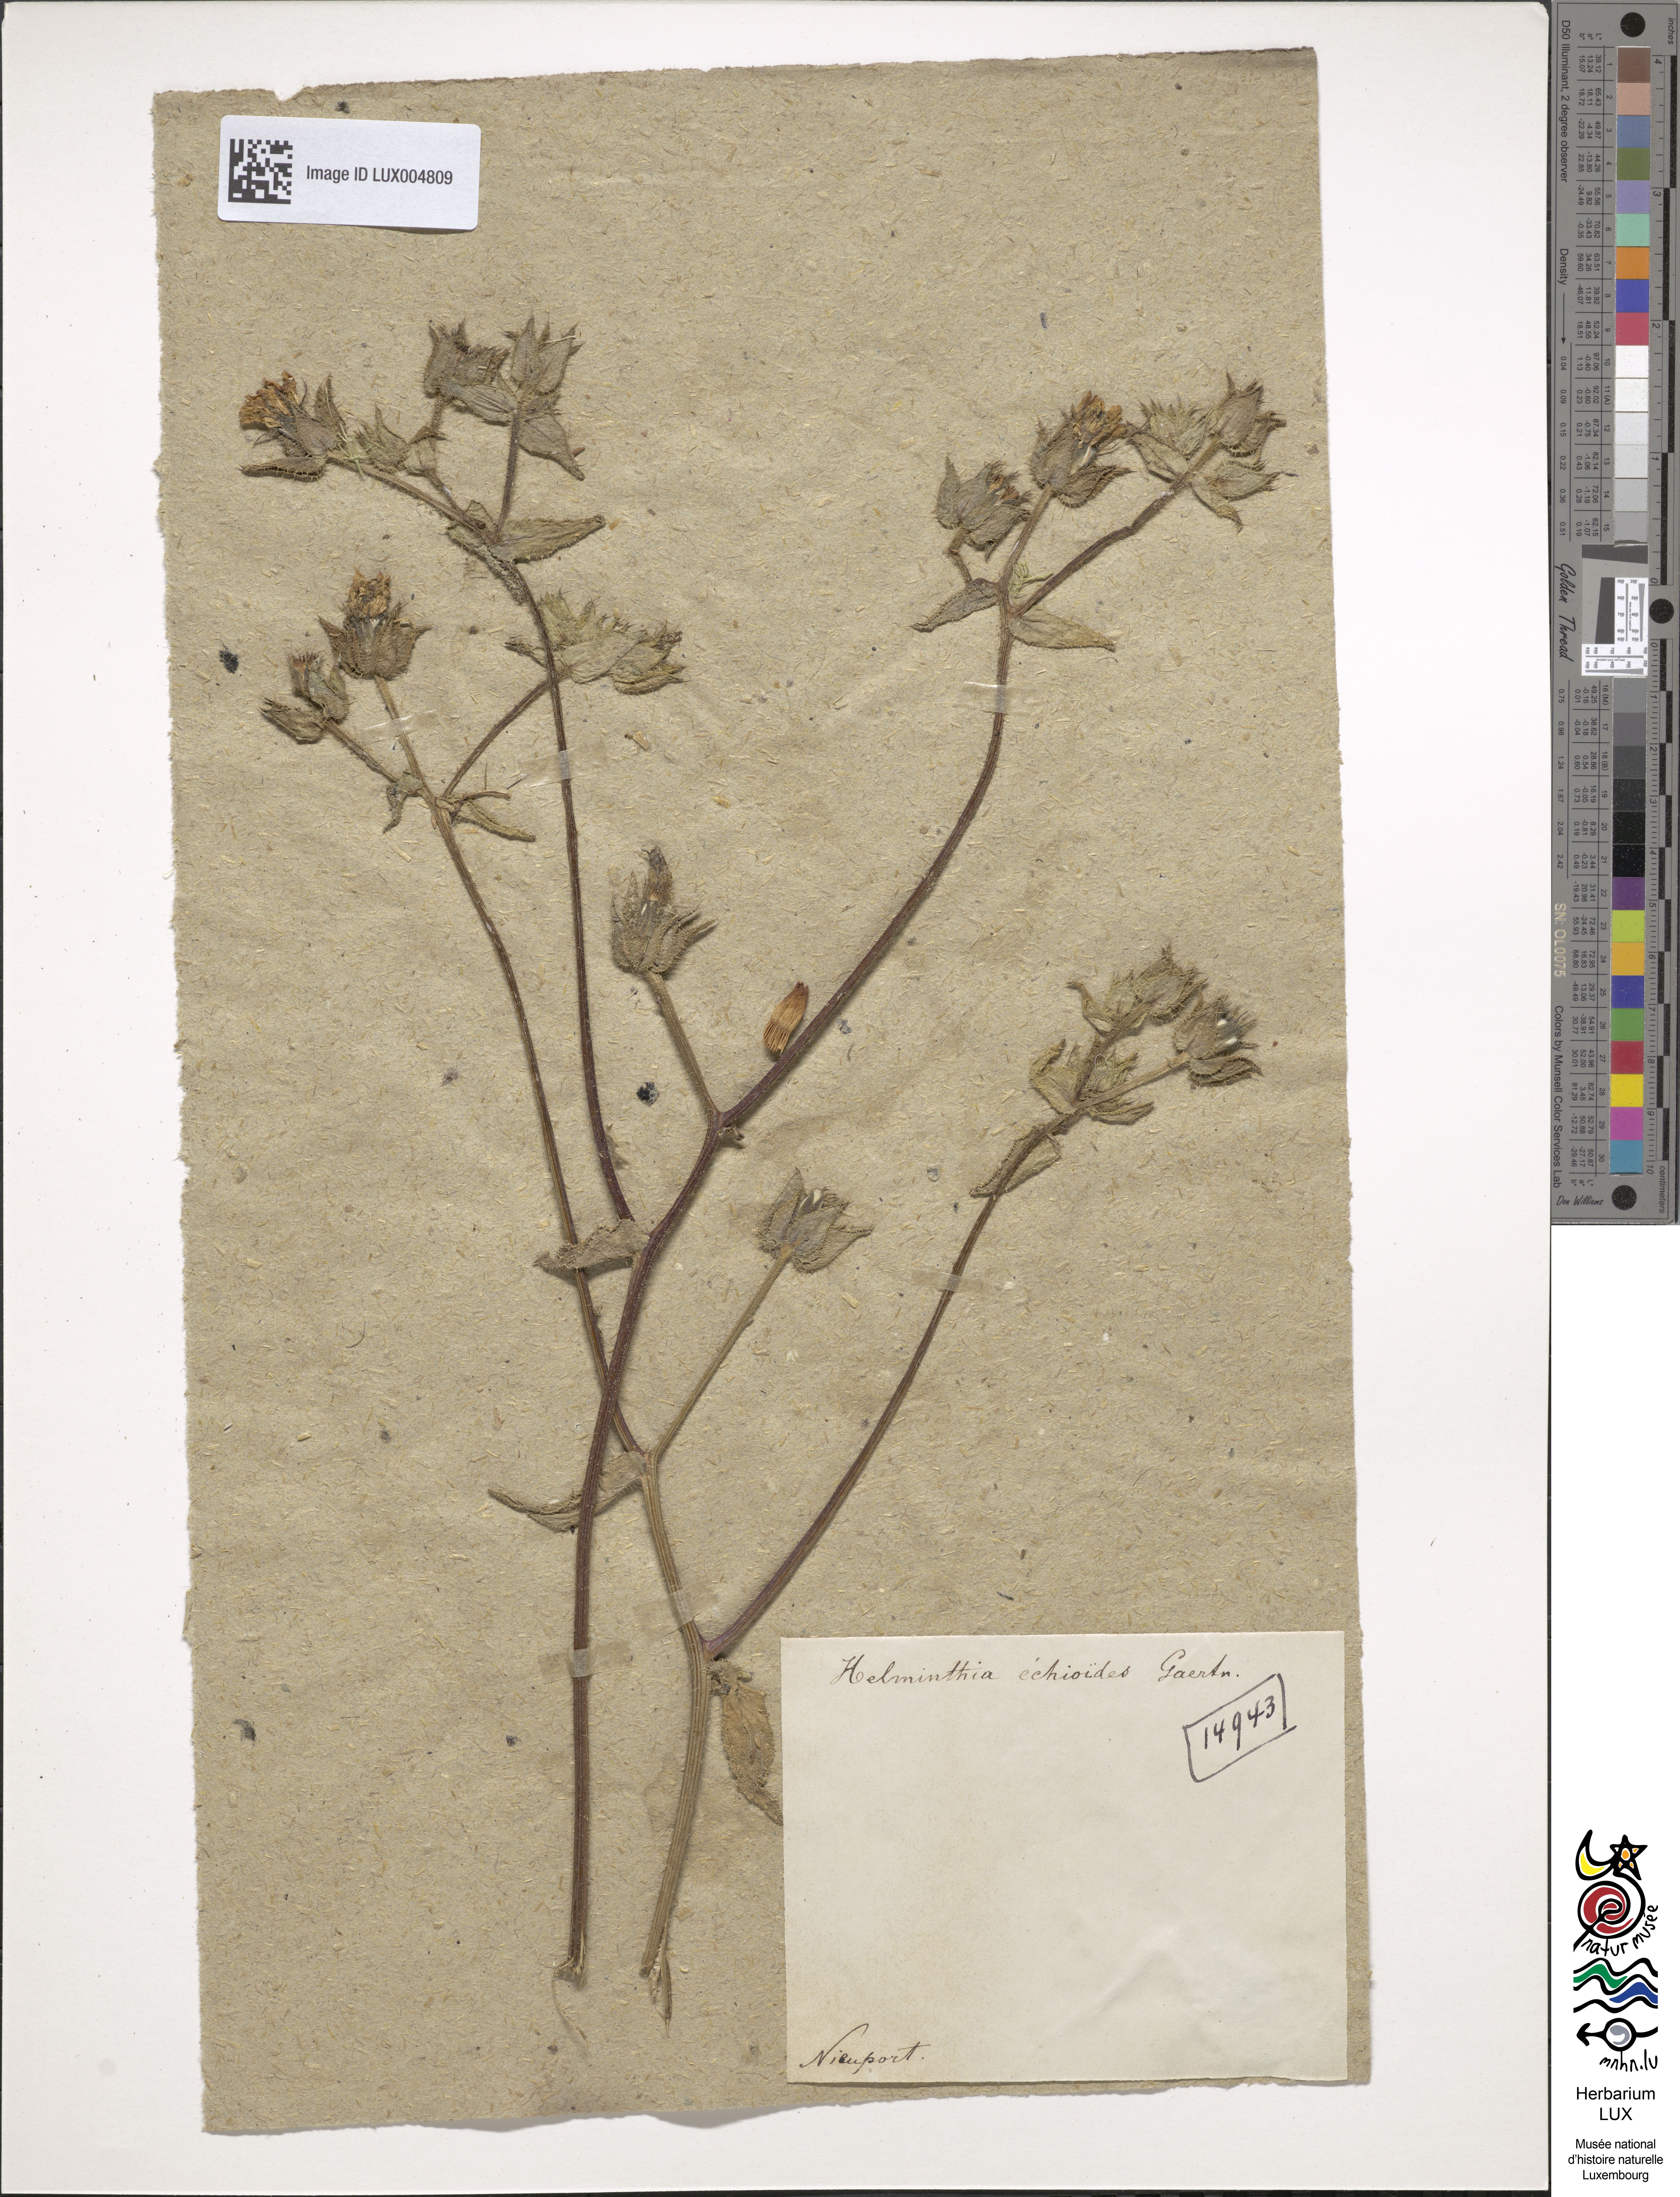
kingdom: Plantae
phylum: Tracheophyta
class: Magnoliopsida
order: Asterales
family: Asteraceae
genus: Helminthotheca
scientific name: Helminthotheca echioides
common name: Ox-tongue
